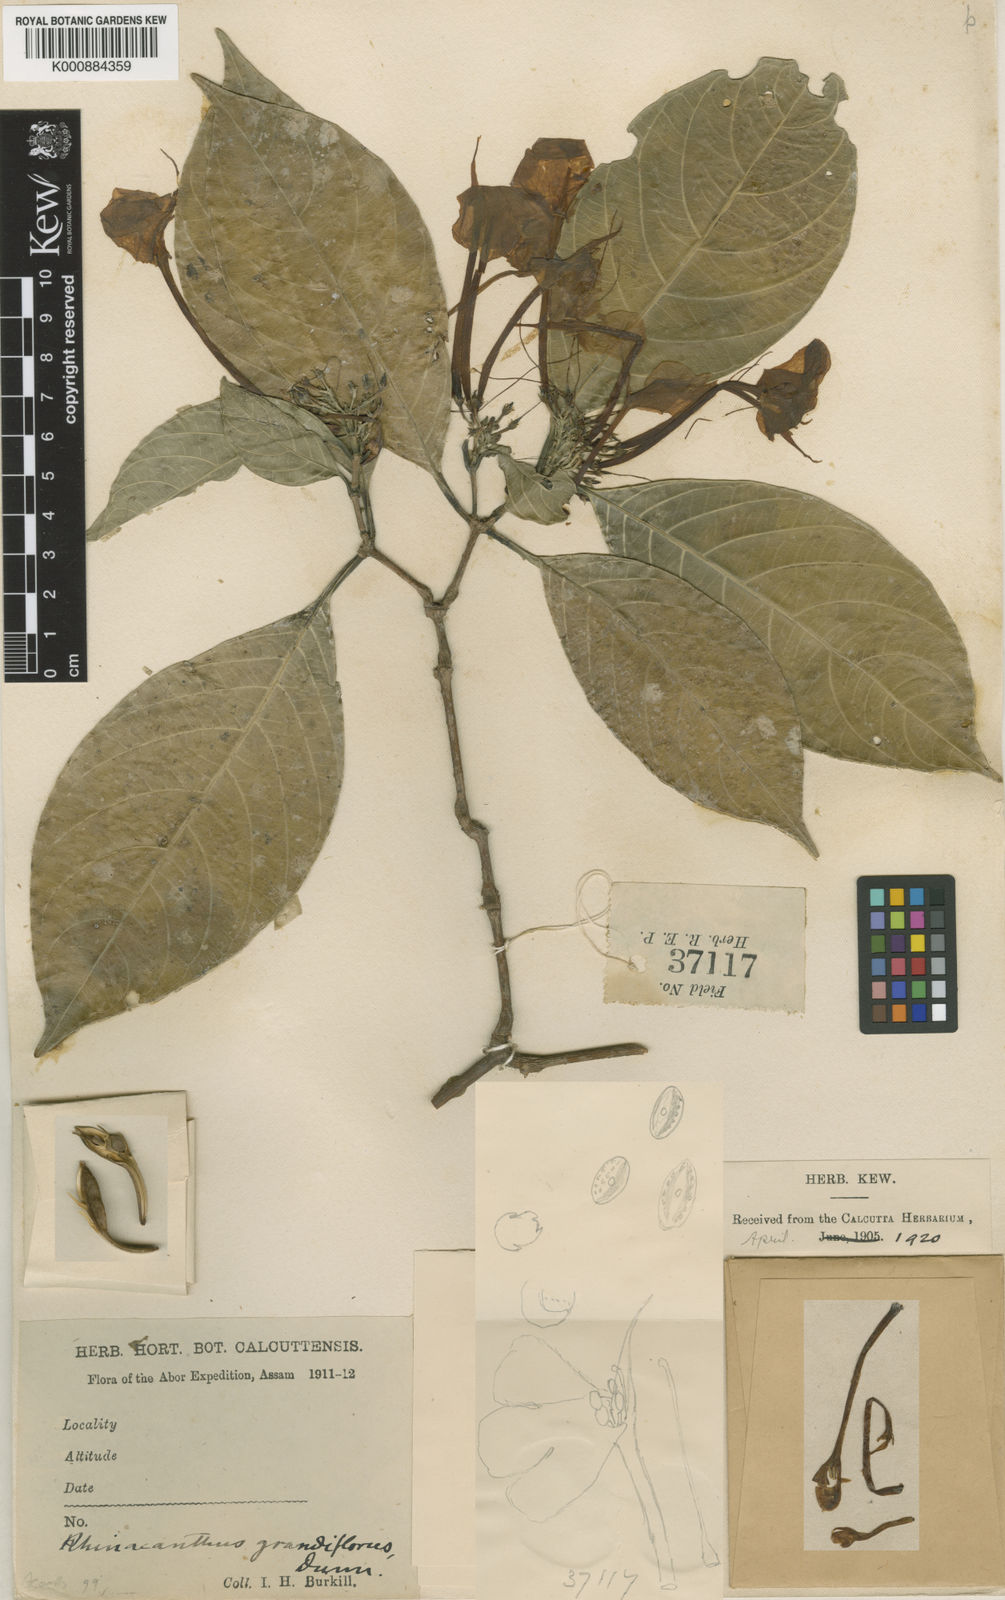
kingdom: Plantae
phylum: Tracheophyta
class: Magnoliopsida
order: Lamiales
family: Acanthaceae
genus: Rhinacanthus
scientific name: Rhinacanthus grandiflorus
